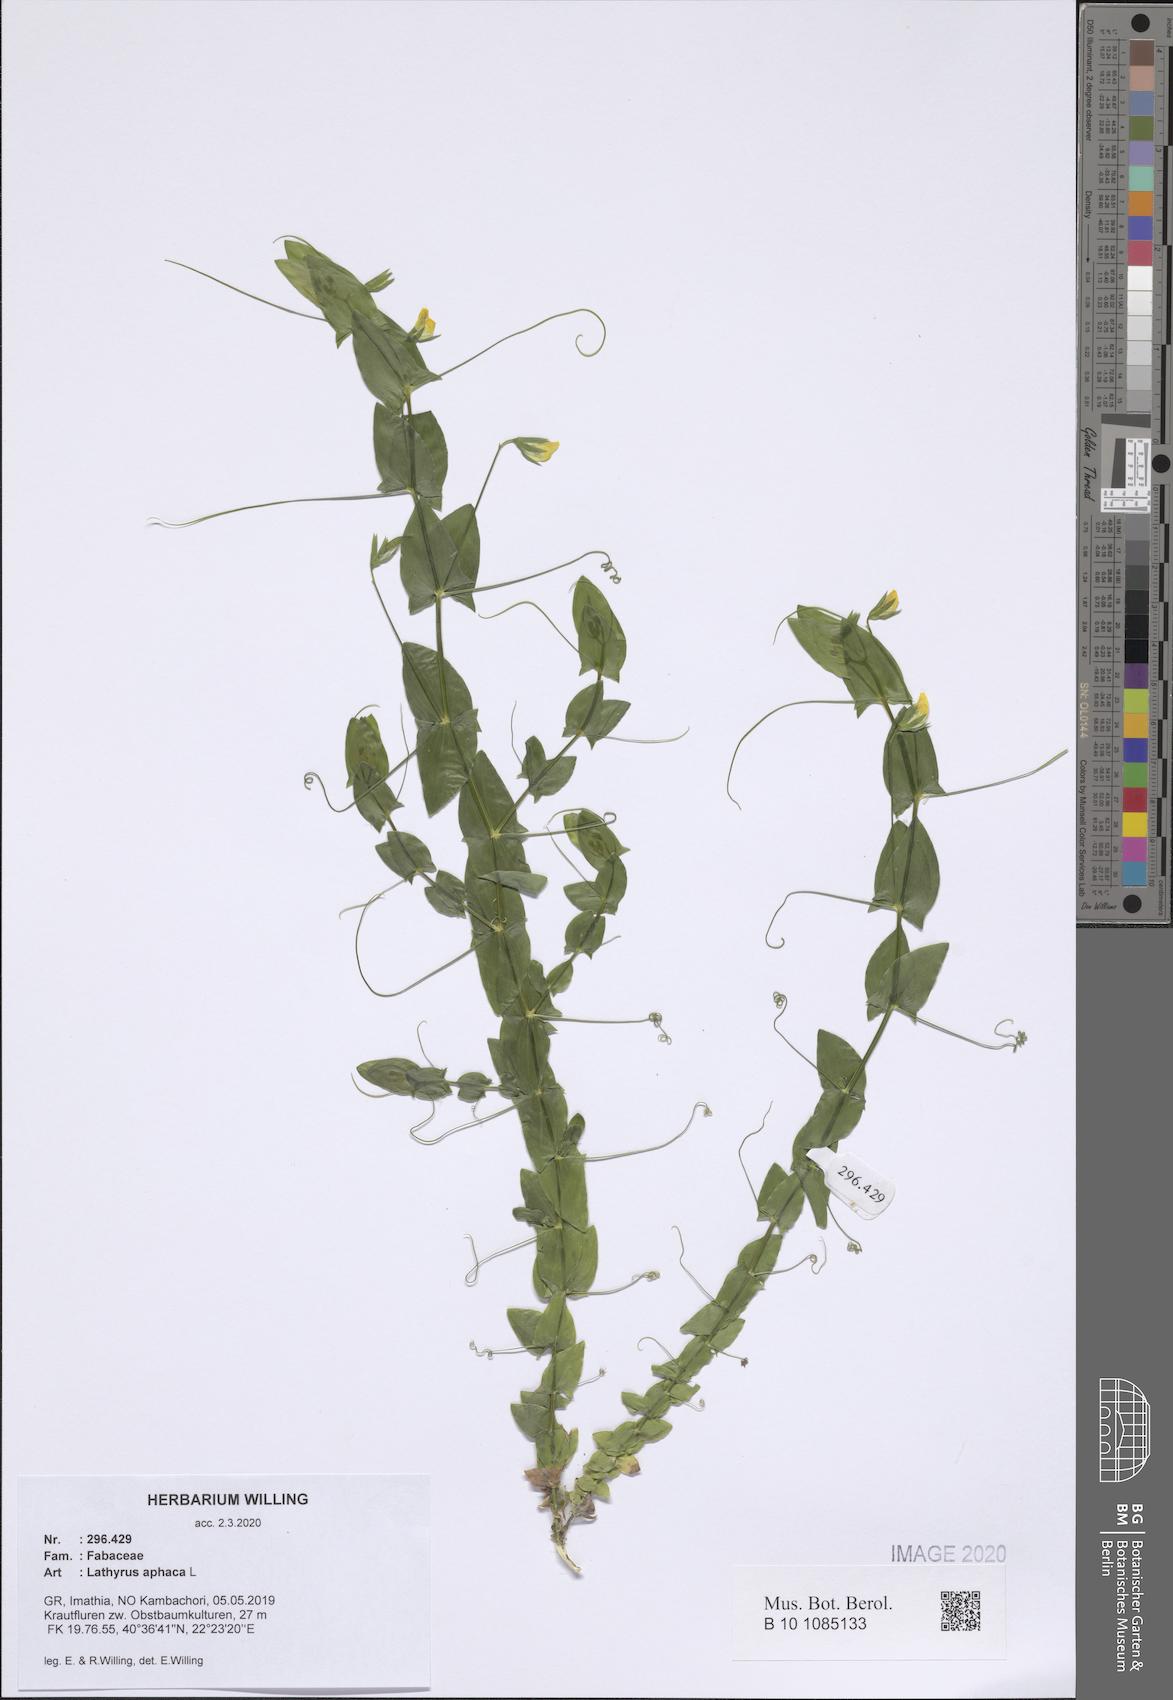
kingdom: Plantae
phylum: Tracheophyta
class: Magnoliopsida
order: Fabales
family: Fabaceae
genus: Lathyrus
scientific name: Lathyrus aphaca
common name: Yellow vetchling
